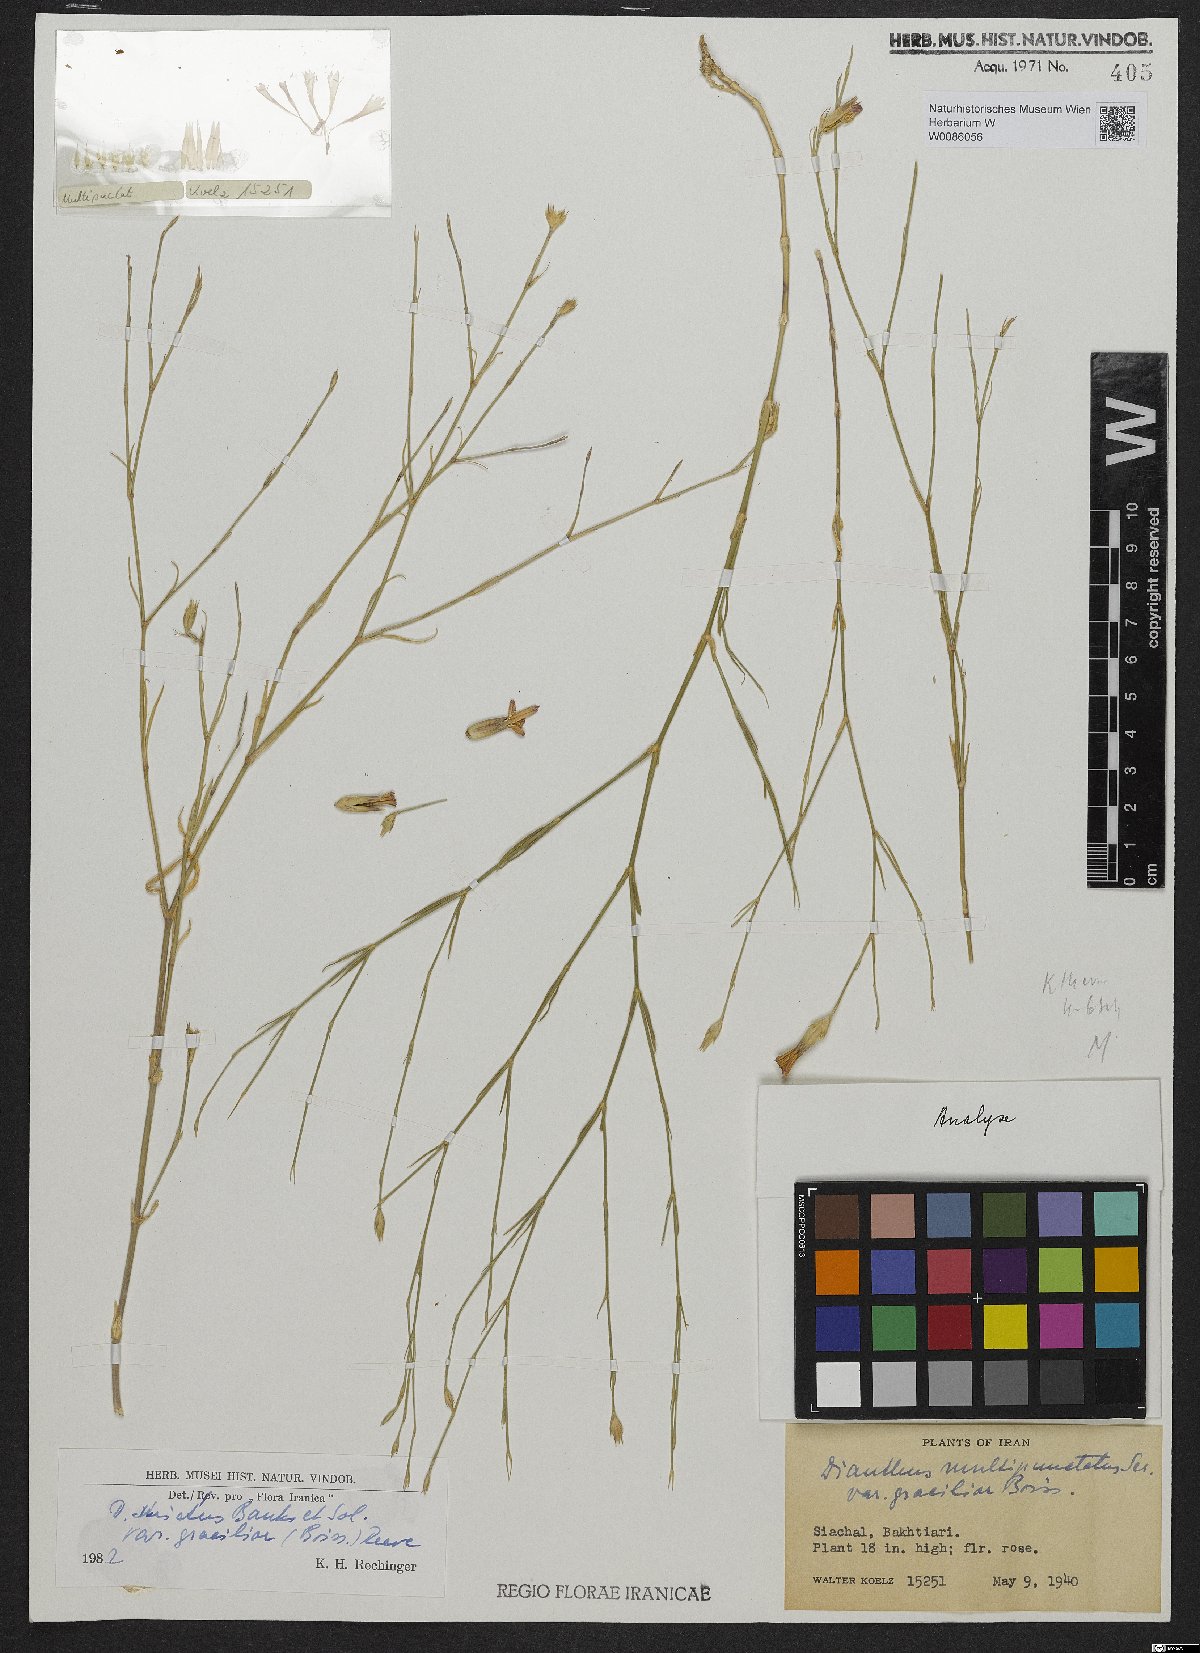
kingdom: Plantae
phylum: Tracheophyta
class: Magnoliopsida
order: Caryophyllales
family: Caryophyllaceae
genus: Dianthus
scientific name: Dianthus strictus
